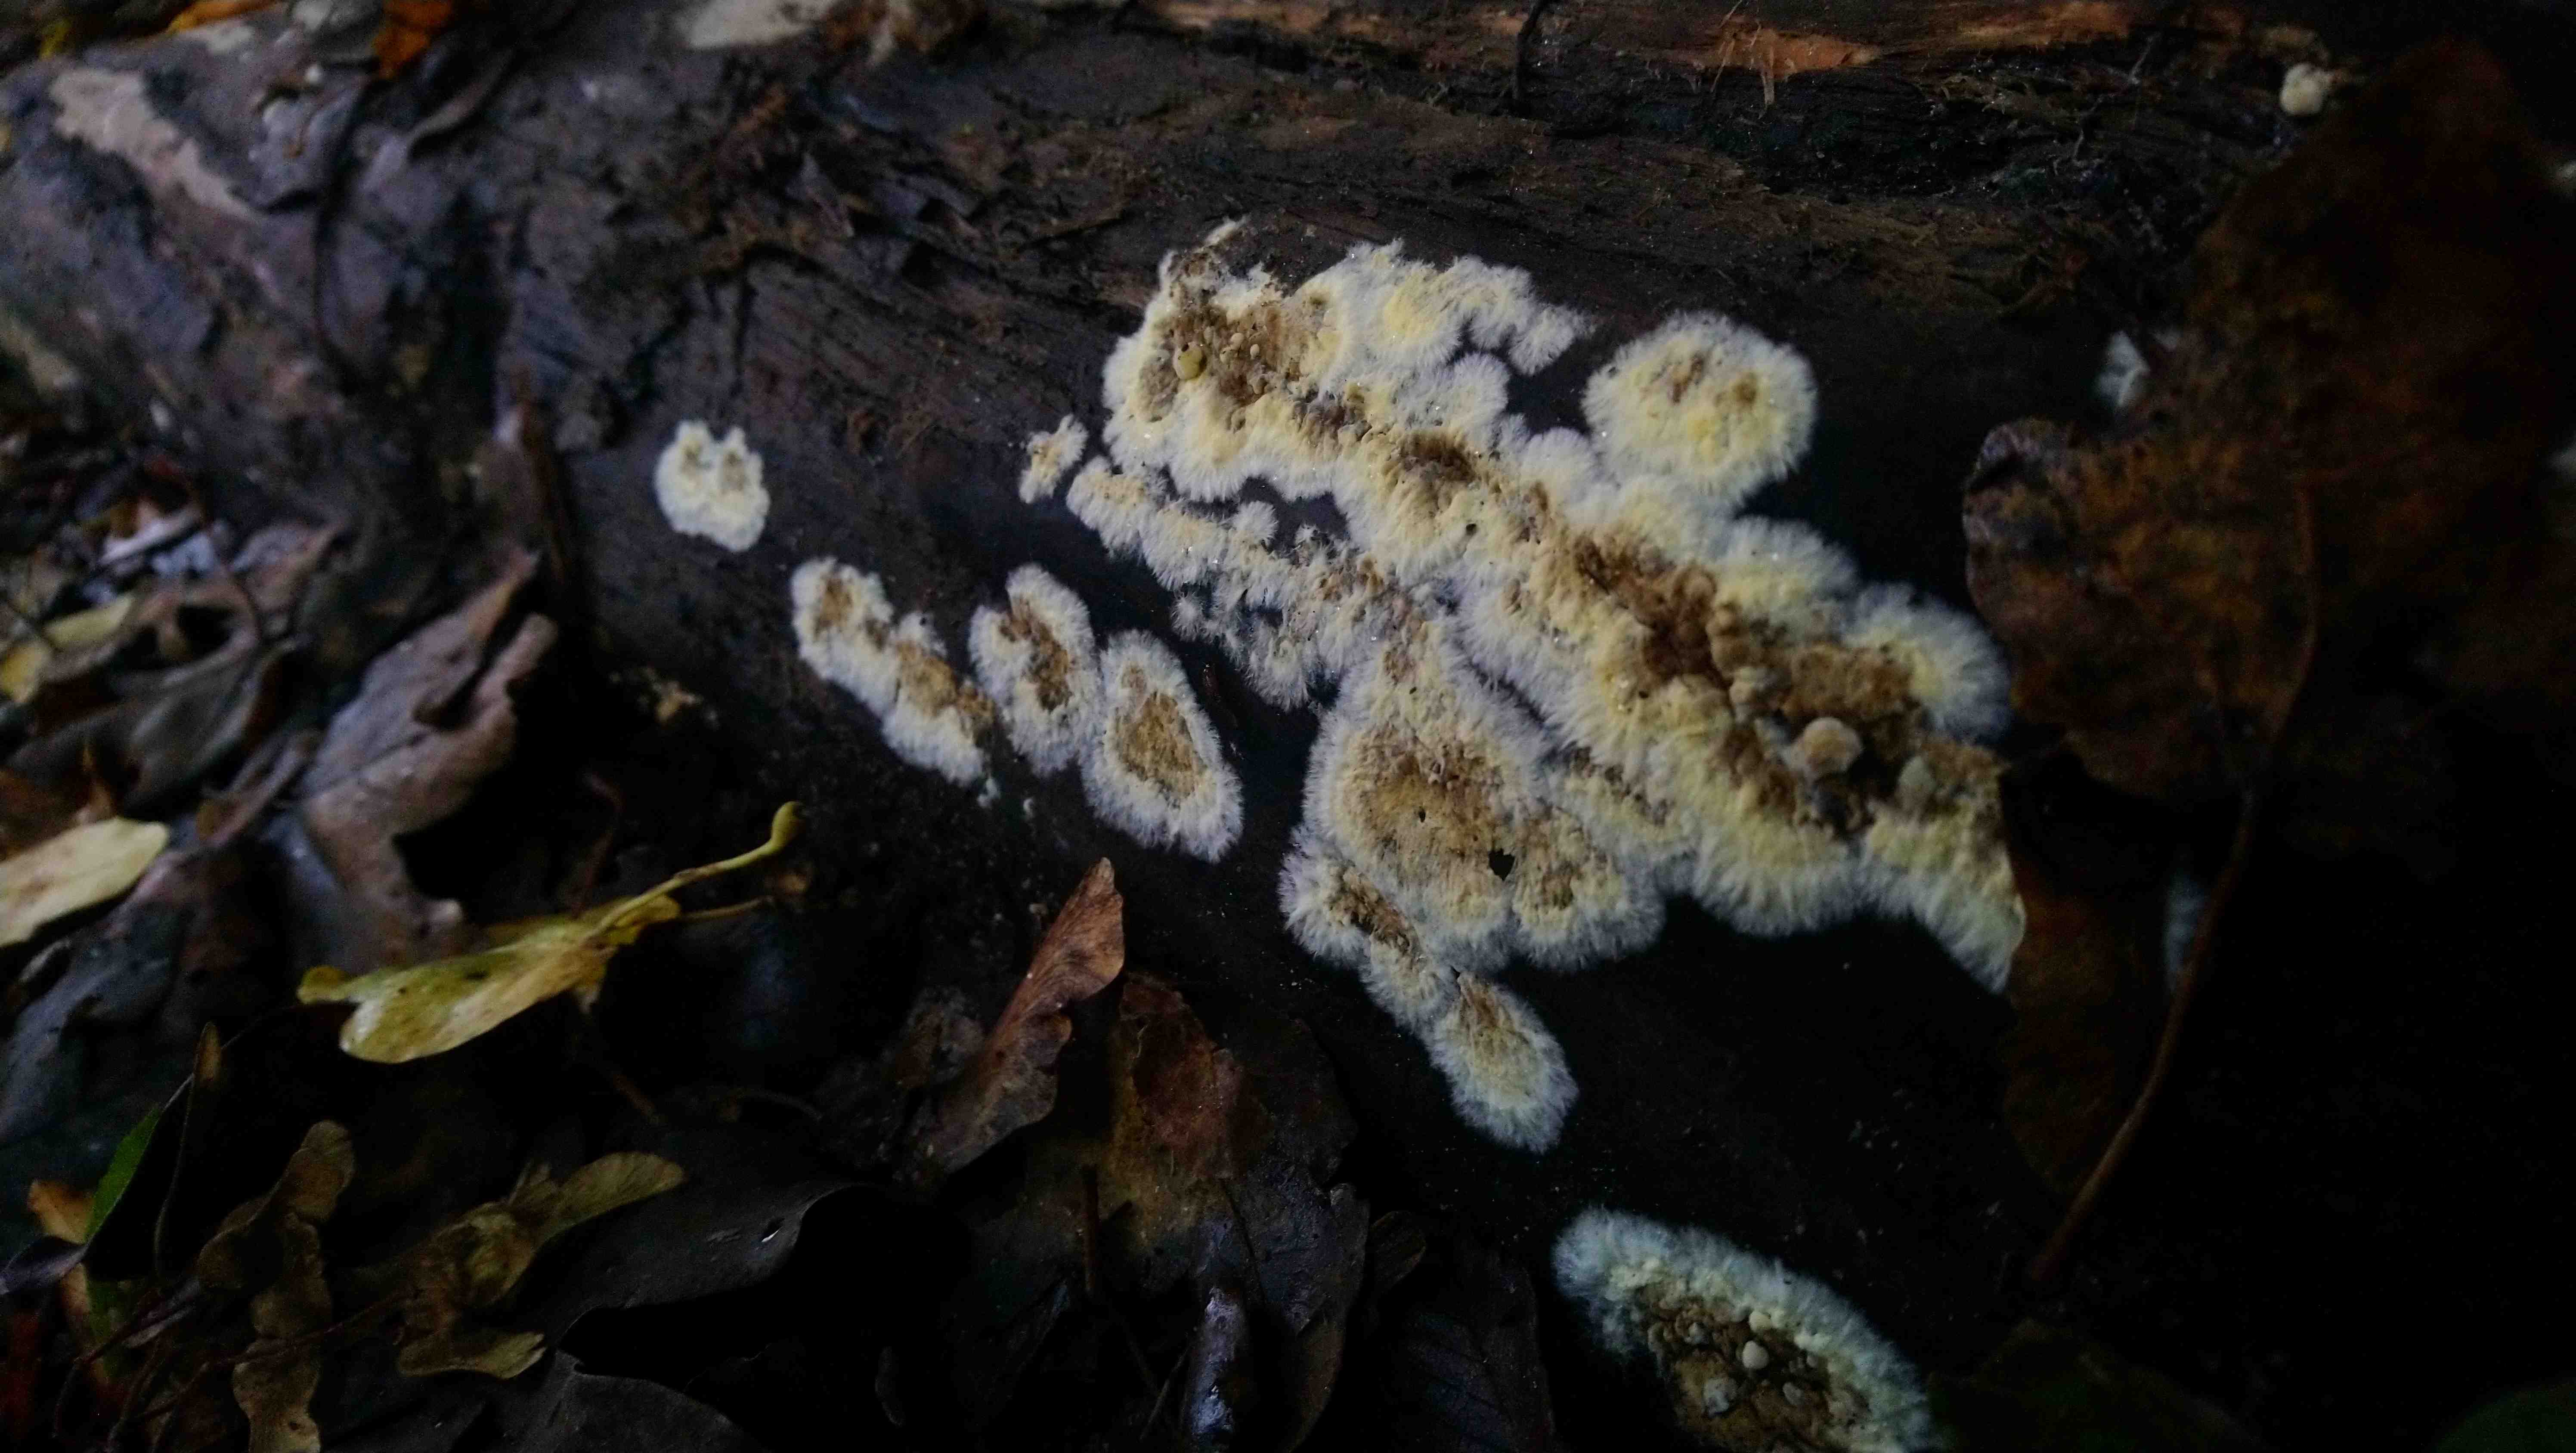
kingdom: Fungi
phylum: Basidiomycota
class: Agaricomycetes
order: Boletales
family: Coniophoraceae
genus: Coniophora
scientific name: Coniophora puteana
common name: gul tømmersvamp
